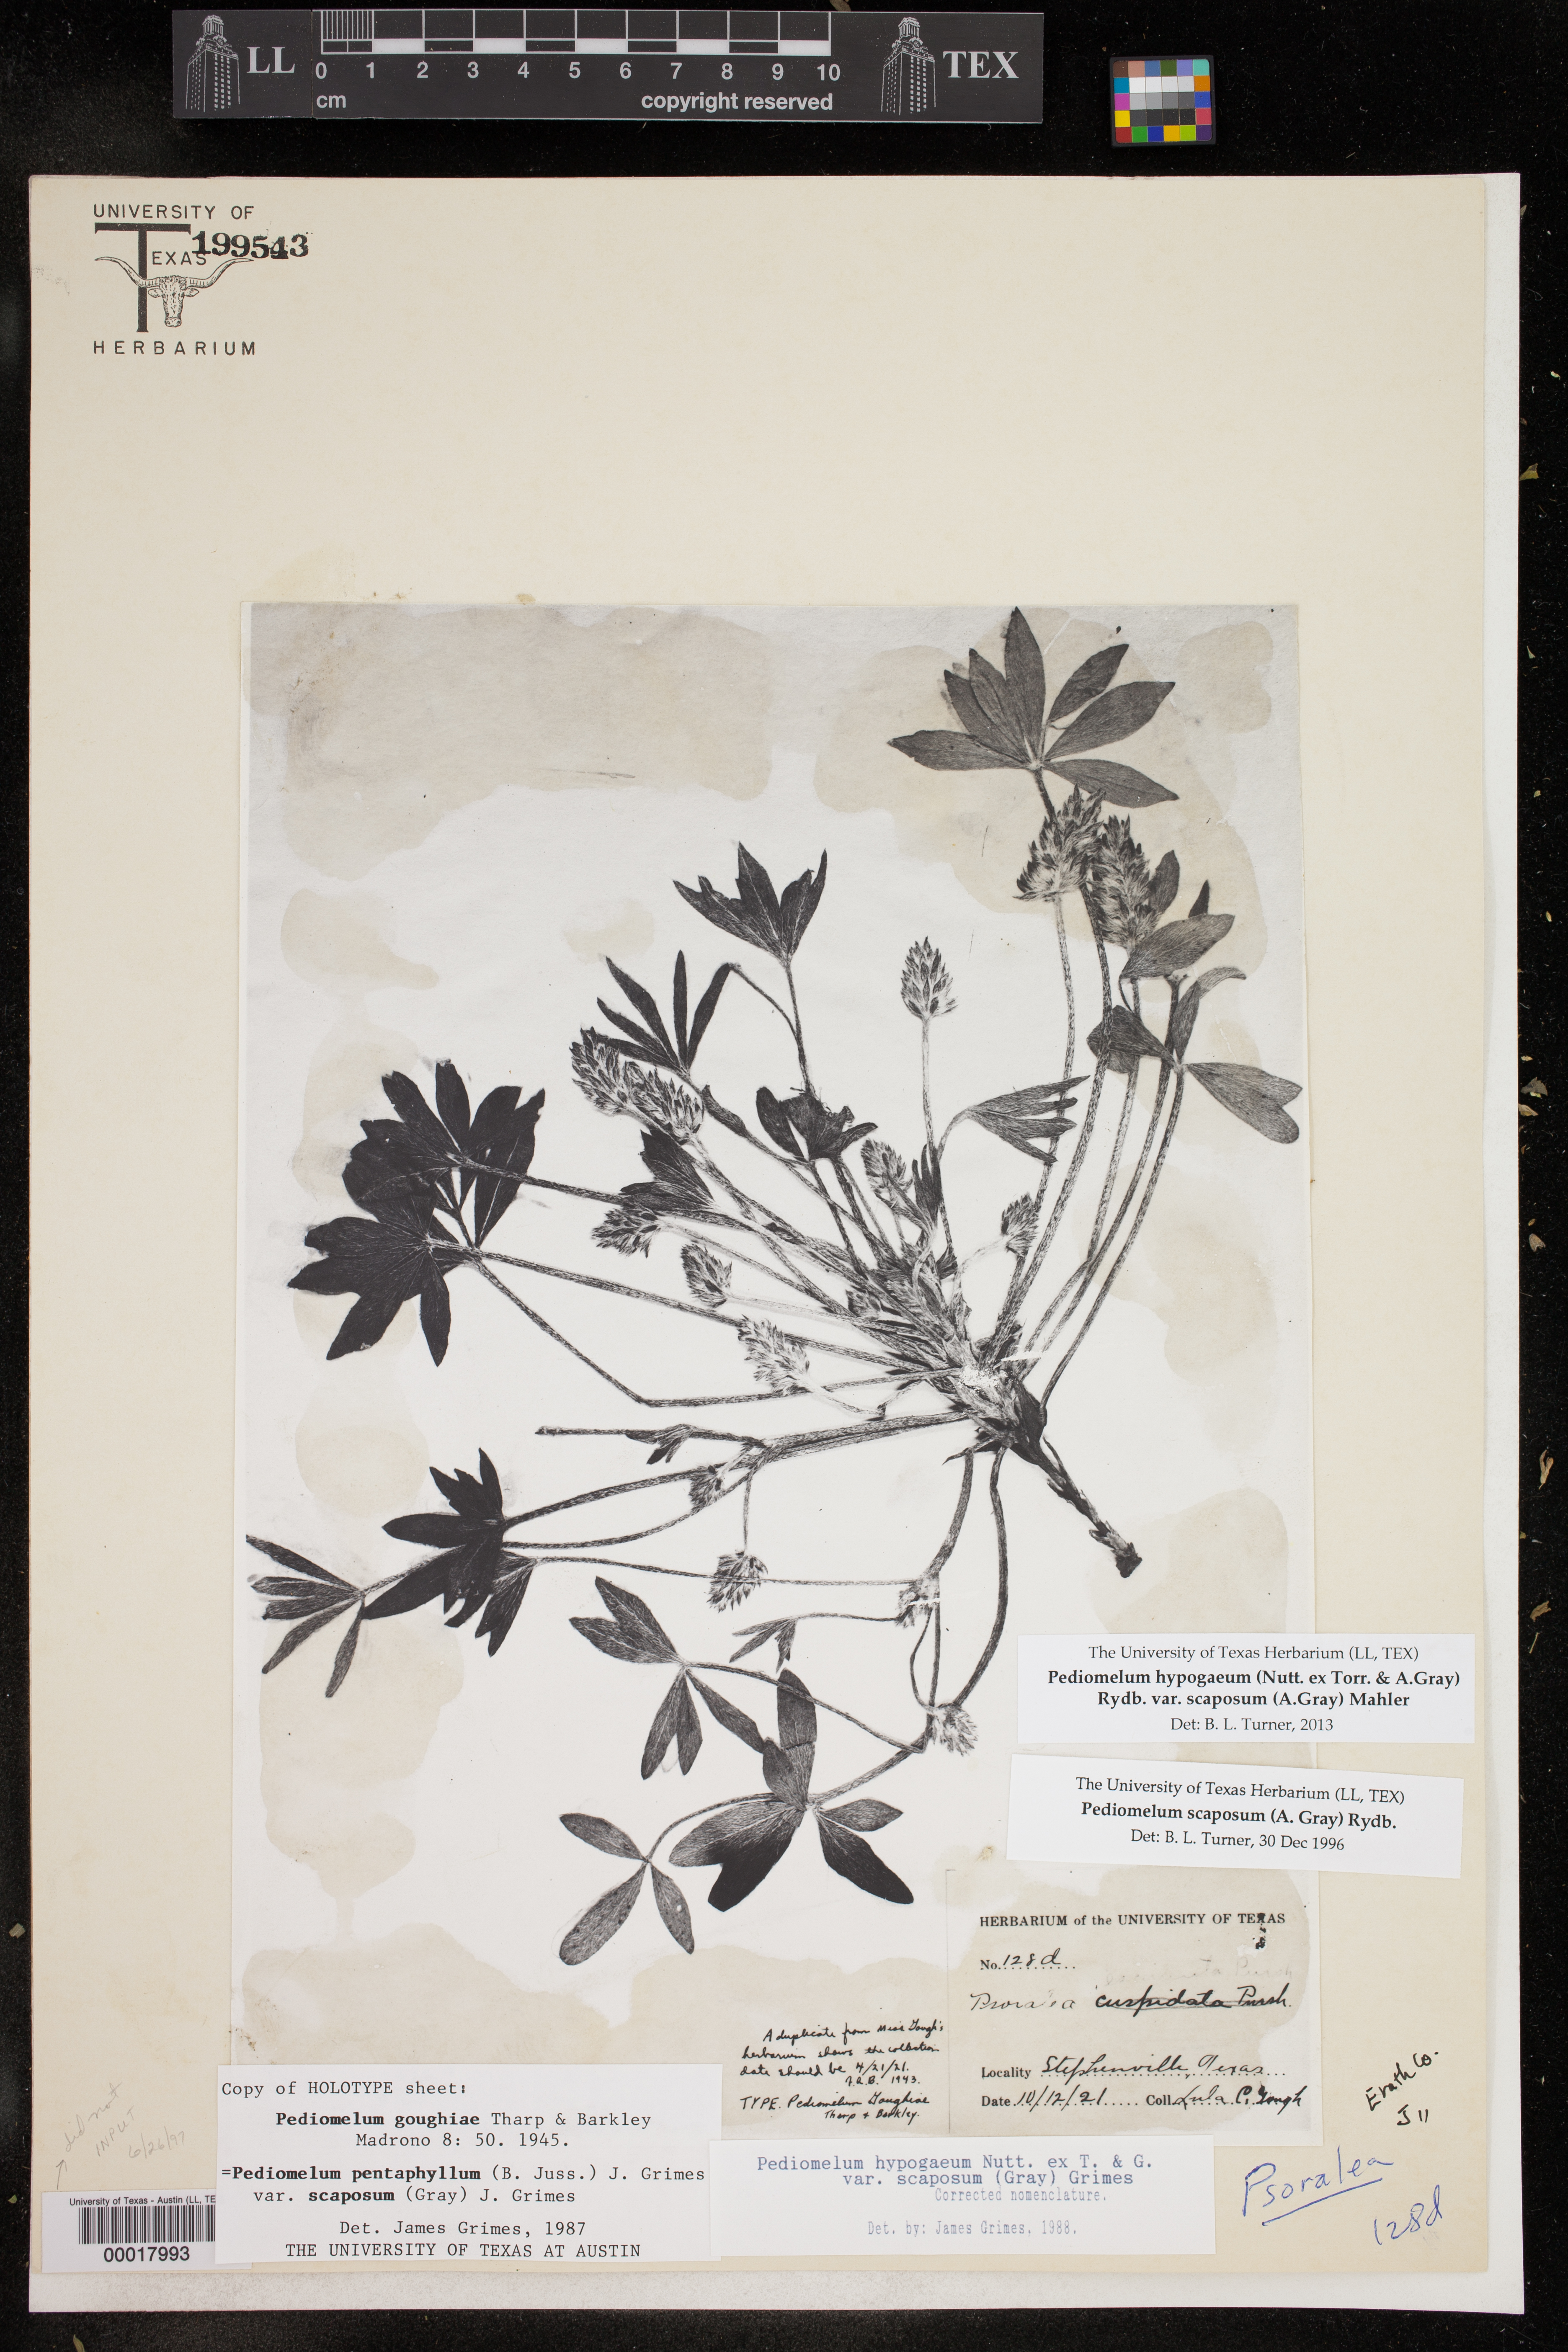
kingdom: Plantae
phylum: Tracheophyta
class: Magnoliopsida
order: Fabales
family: Fabaceae
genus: Pediomelum
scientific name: Pediomelum hypogaeum
